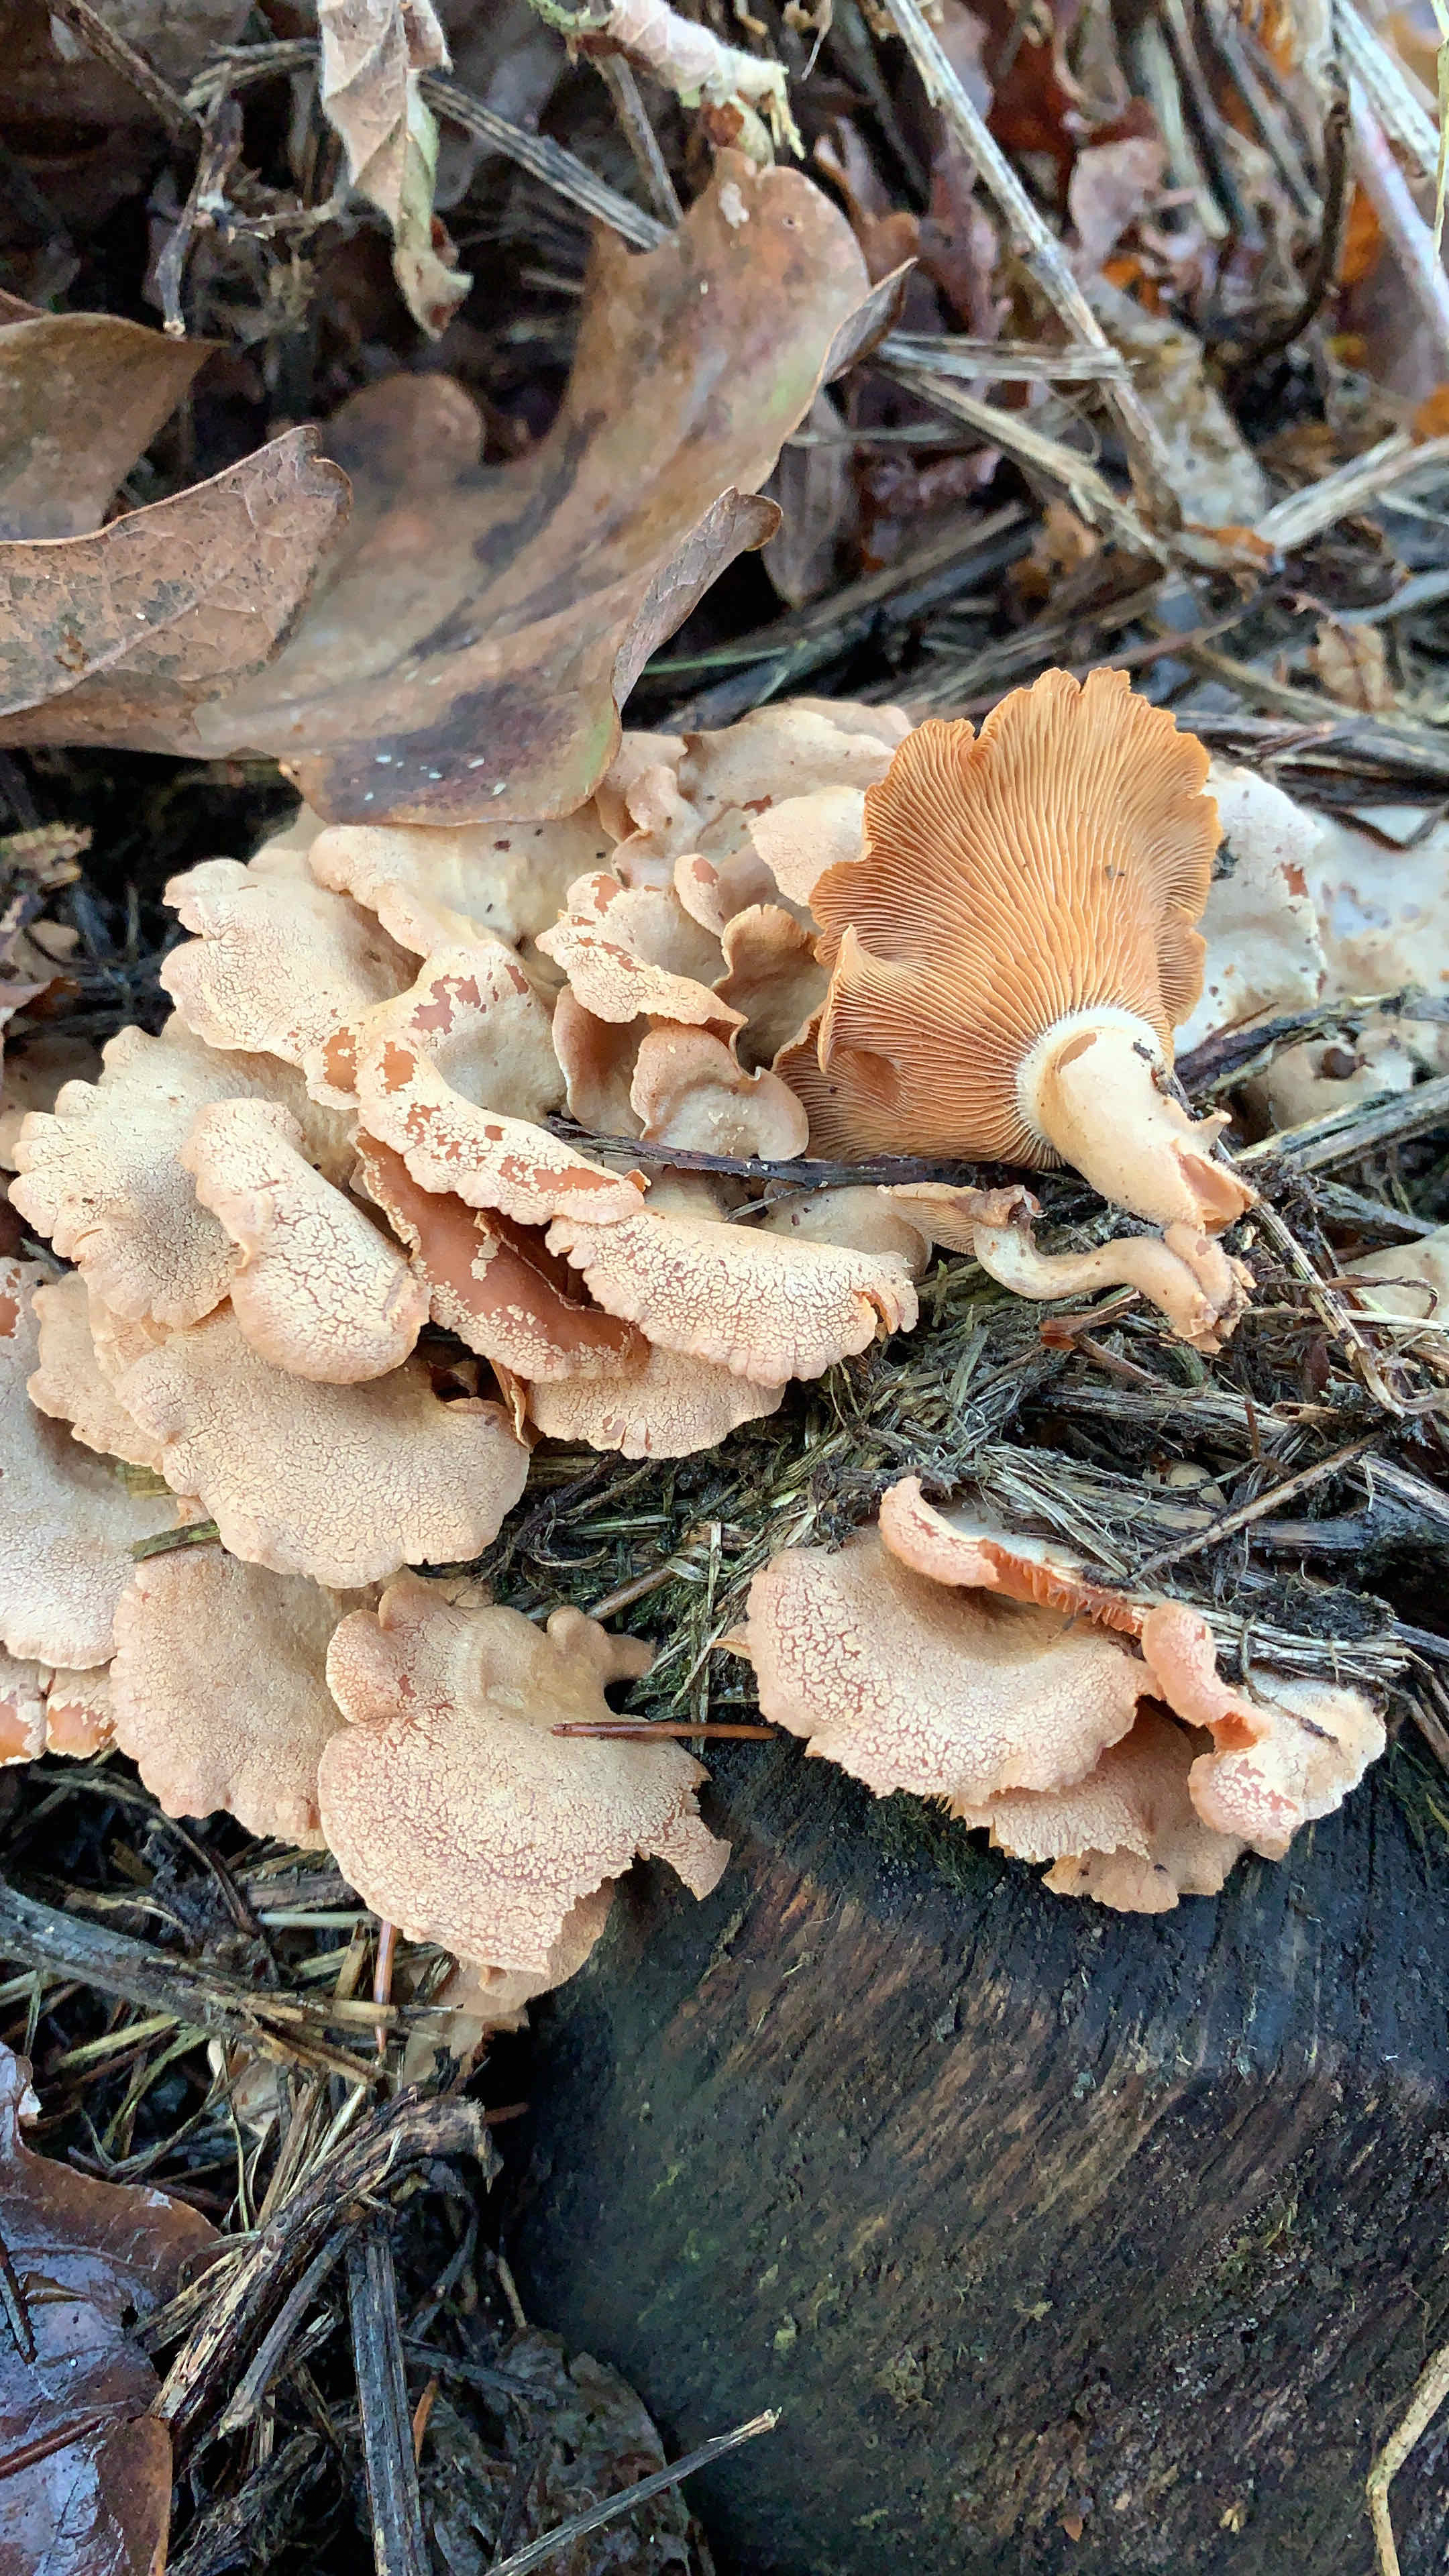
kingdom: Fungi
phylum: Basidiomycota
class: Agaricomycetes
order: Agaricales
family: Mycenaceae
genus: Panellus
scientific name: Panellus stipticus
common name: kliddet epaulethat
